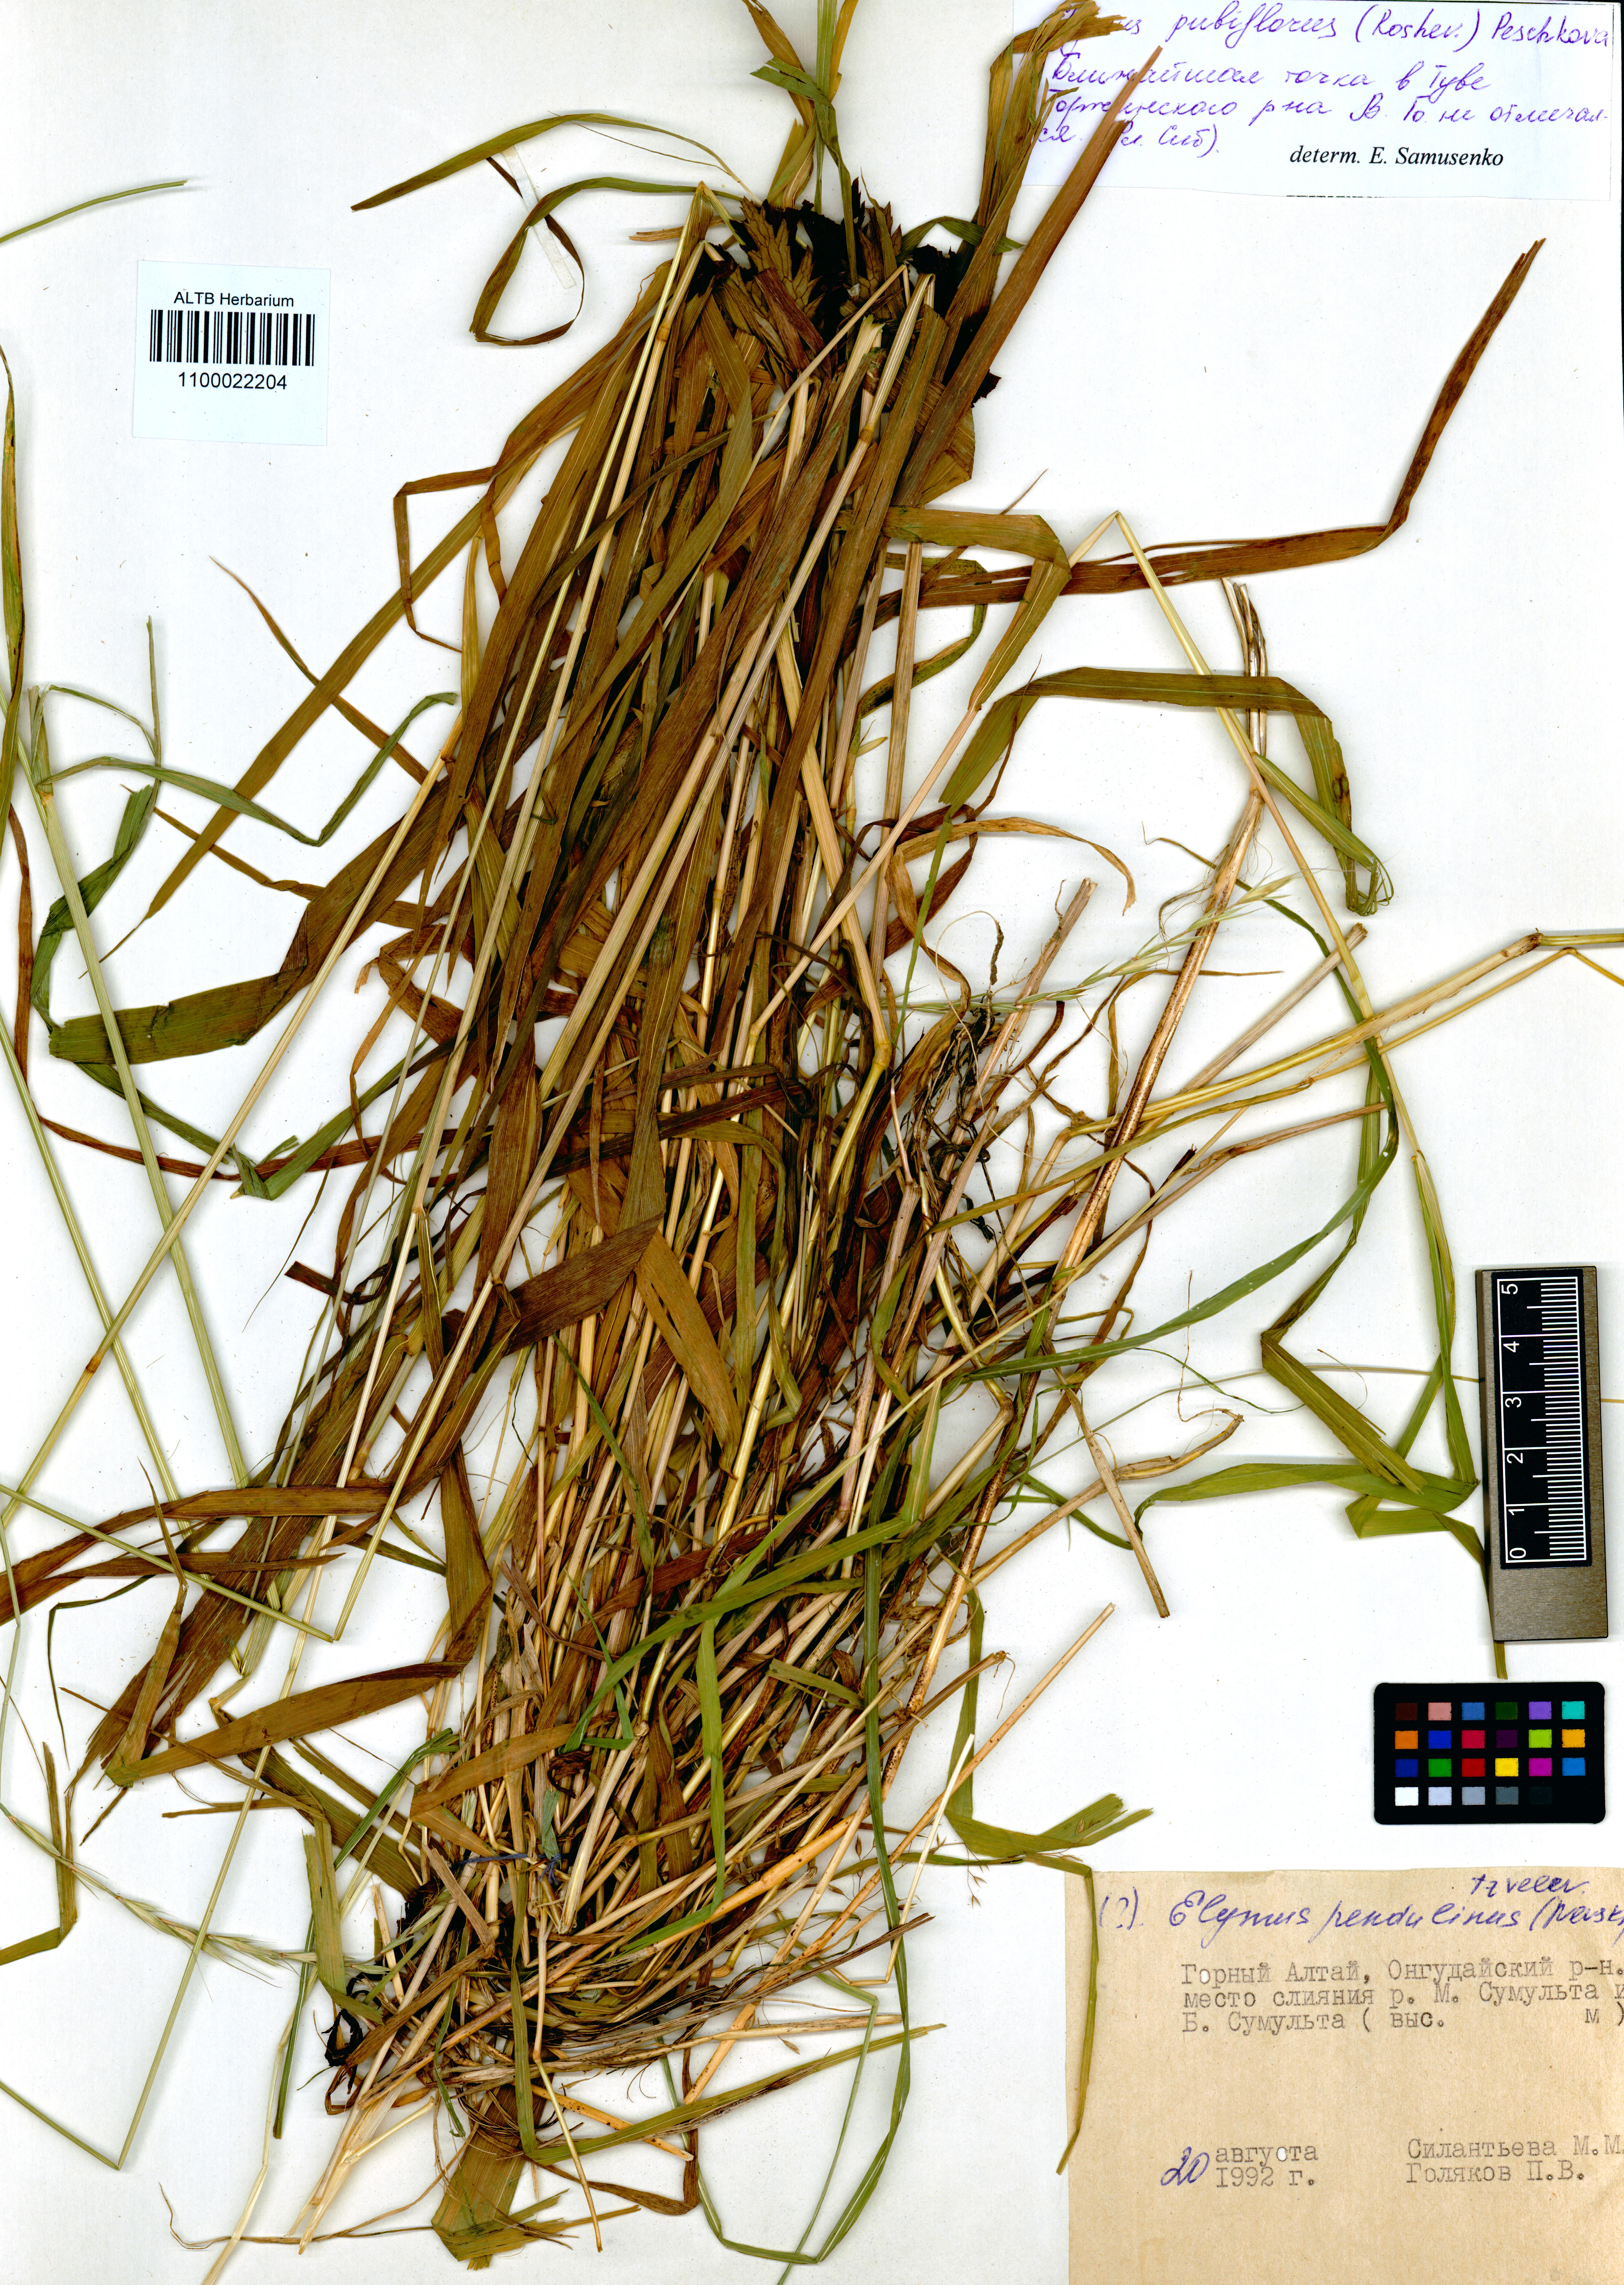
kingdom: Plantae
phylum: Tracheophyta
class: Liliopsida
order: Poales
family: Poaceae
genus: Elymus
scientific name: Elymus confusus
